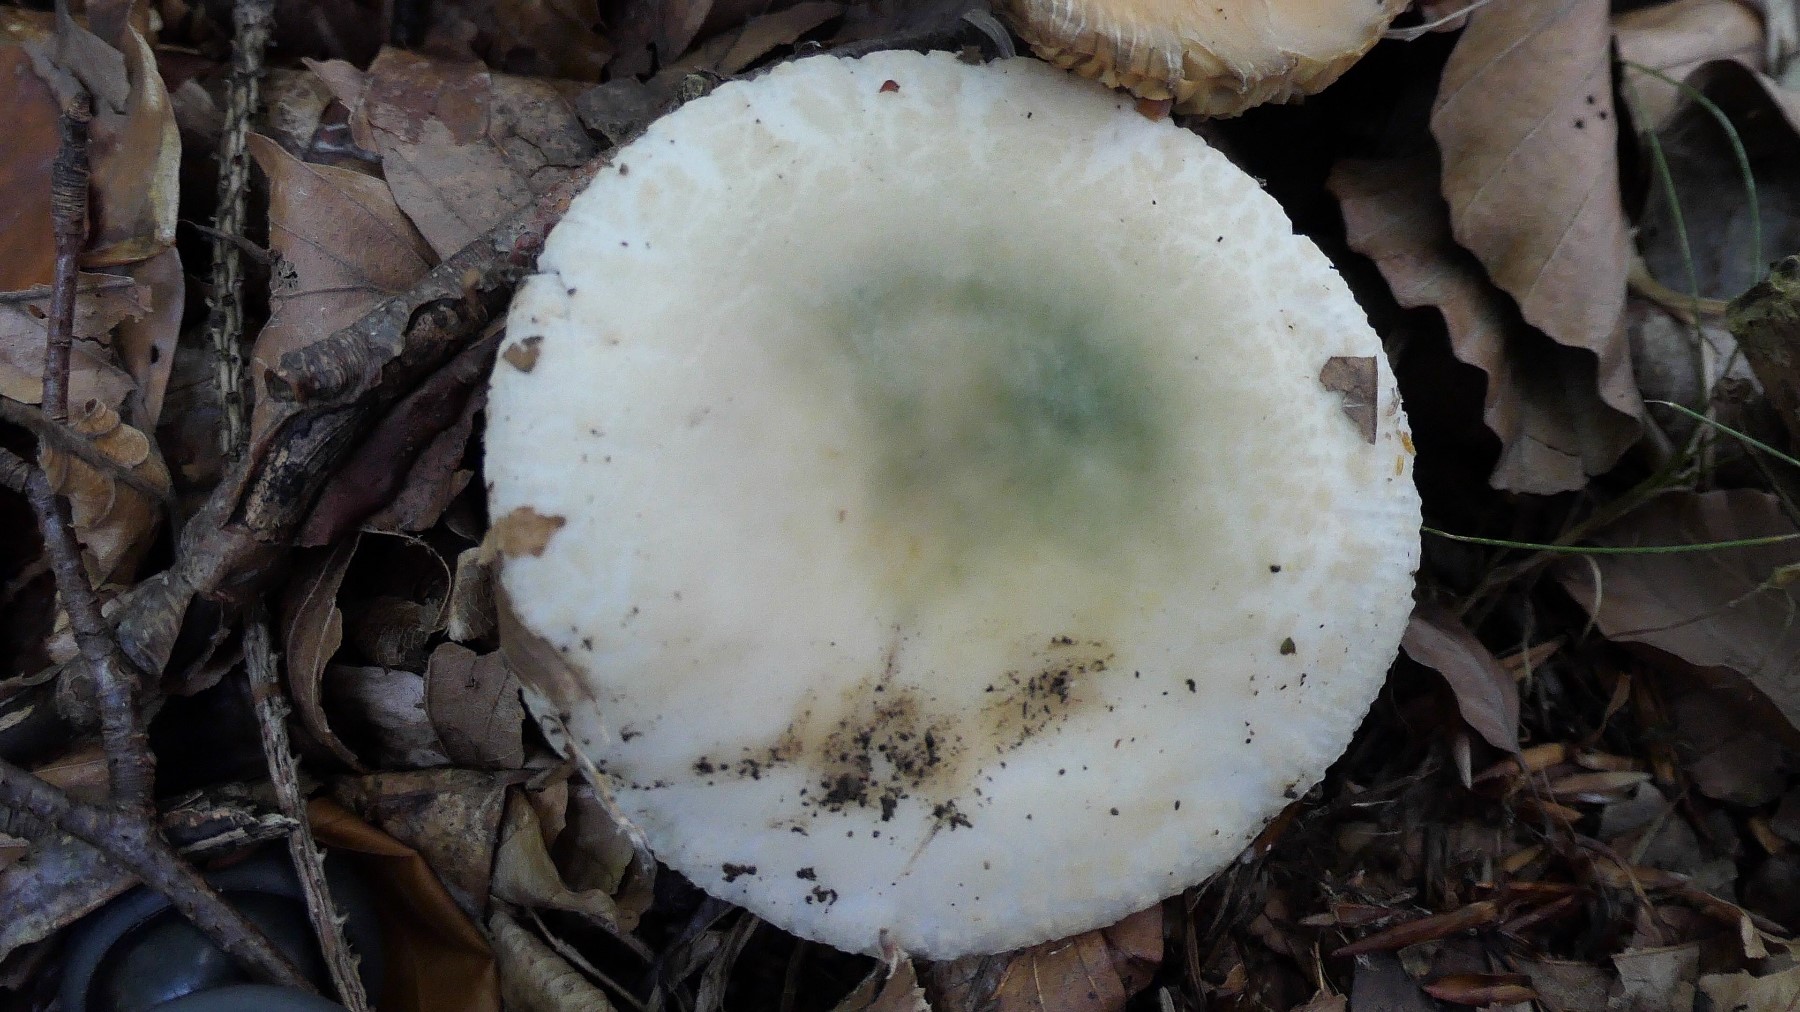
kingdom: Fungi
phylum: Basidiomycota
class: Agaricomycetes
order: Russulales
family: Russulaceae
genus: Russula
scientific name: Russula virescens
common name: spanskgrøn skørhat
